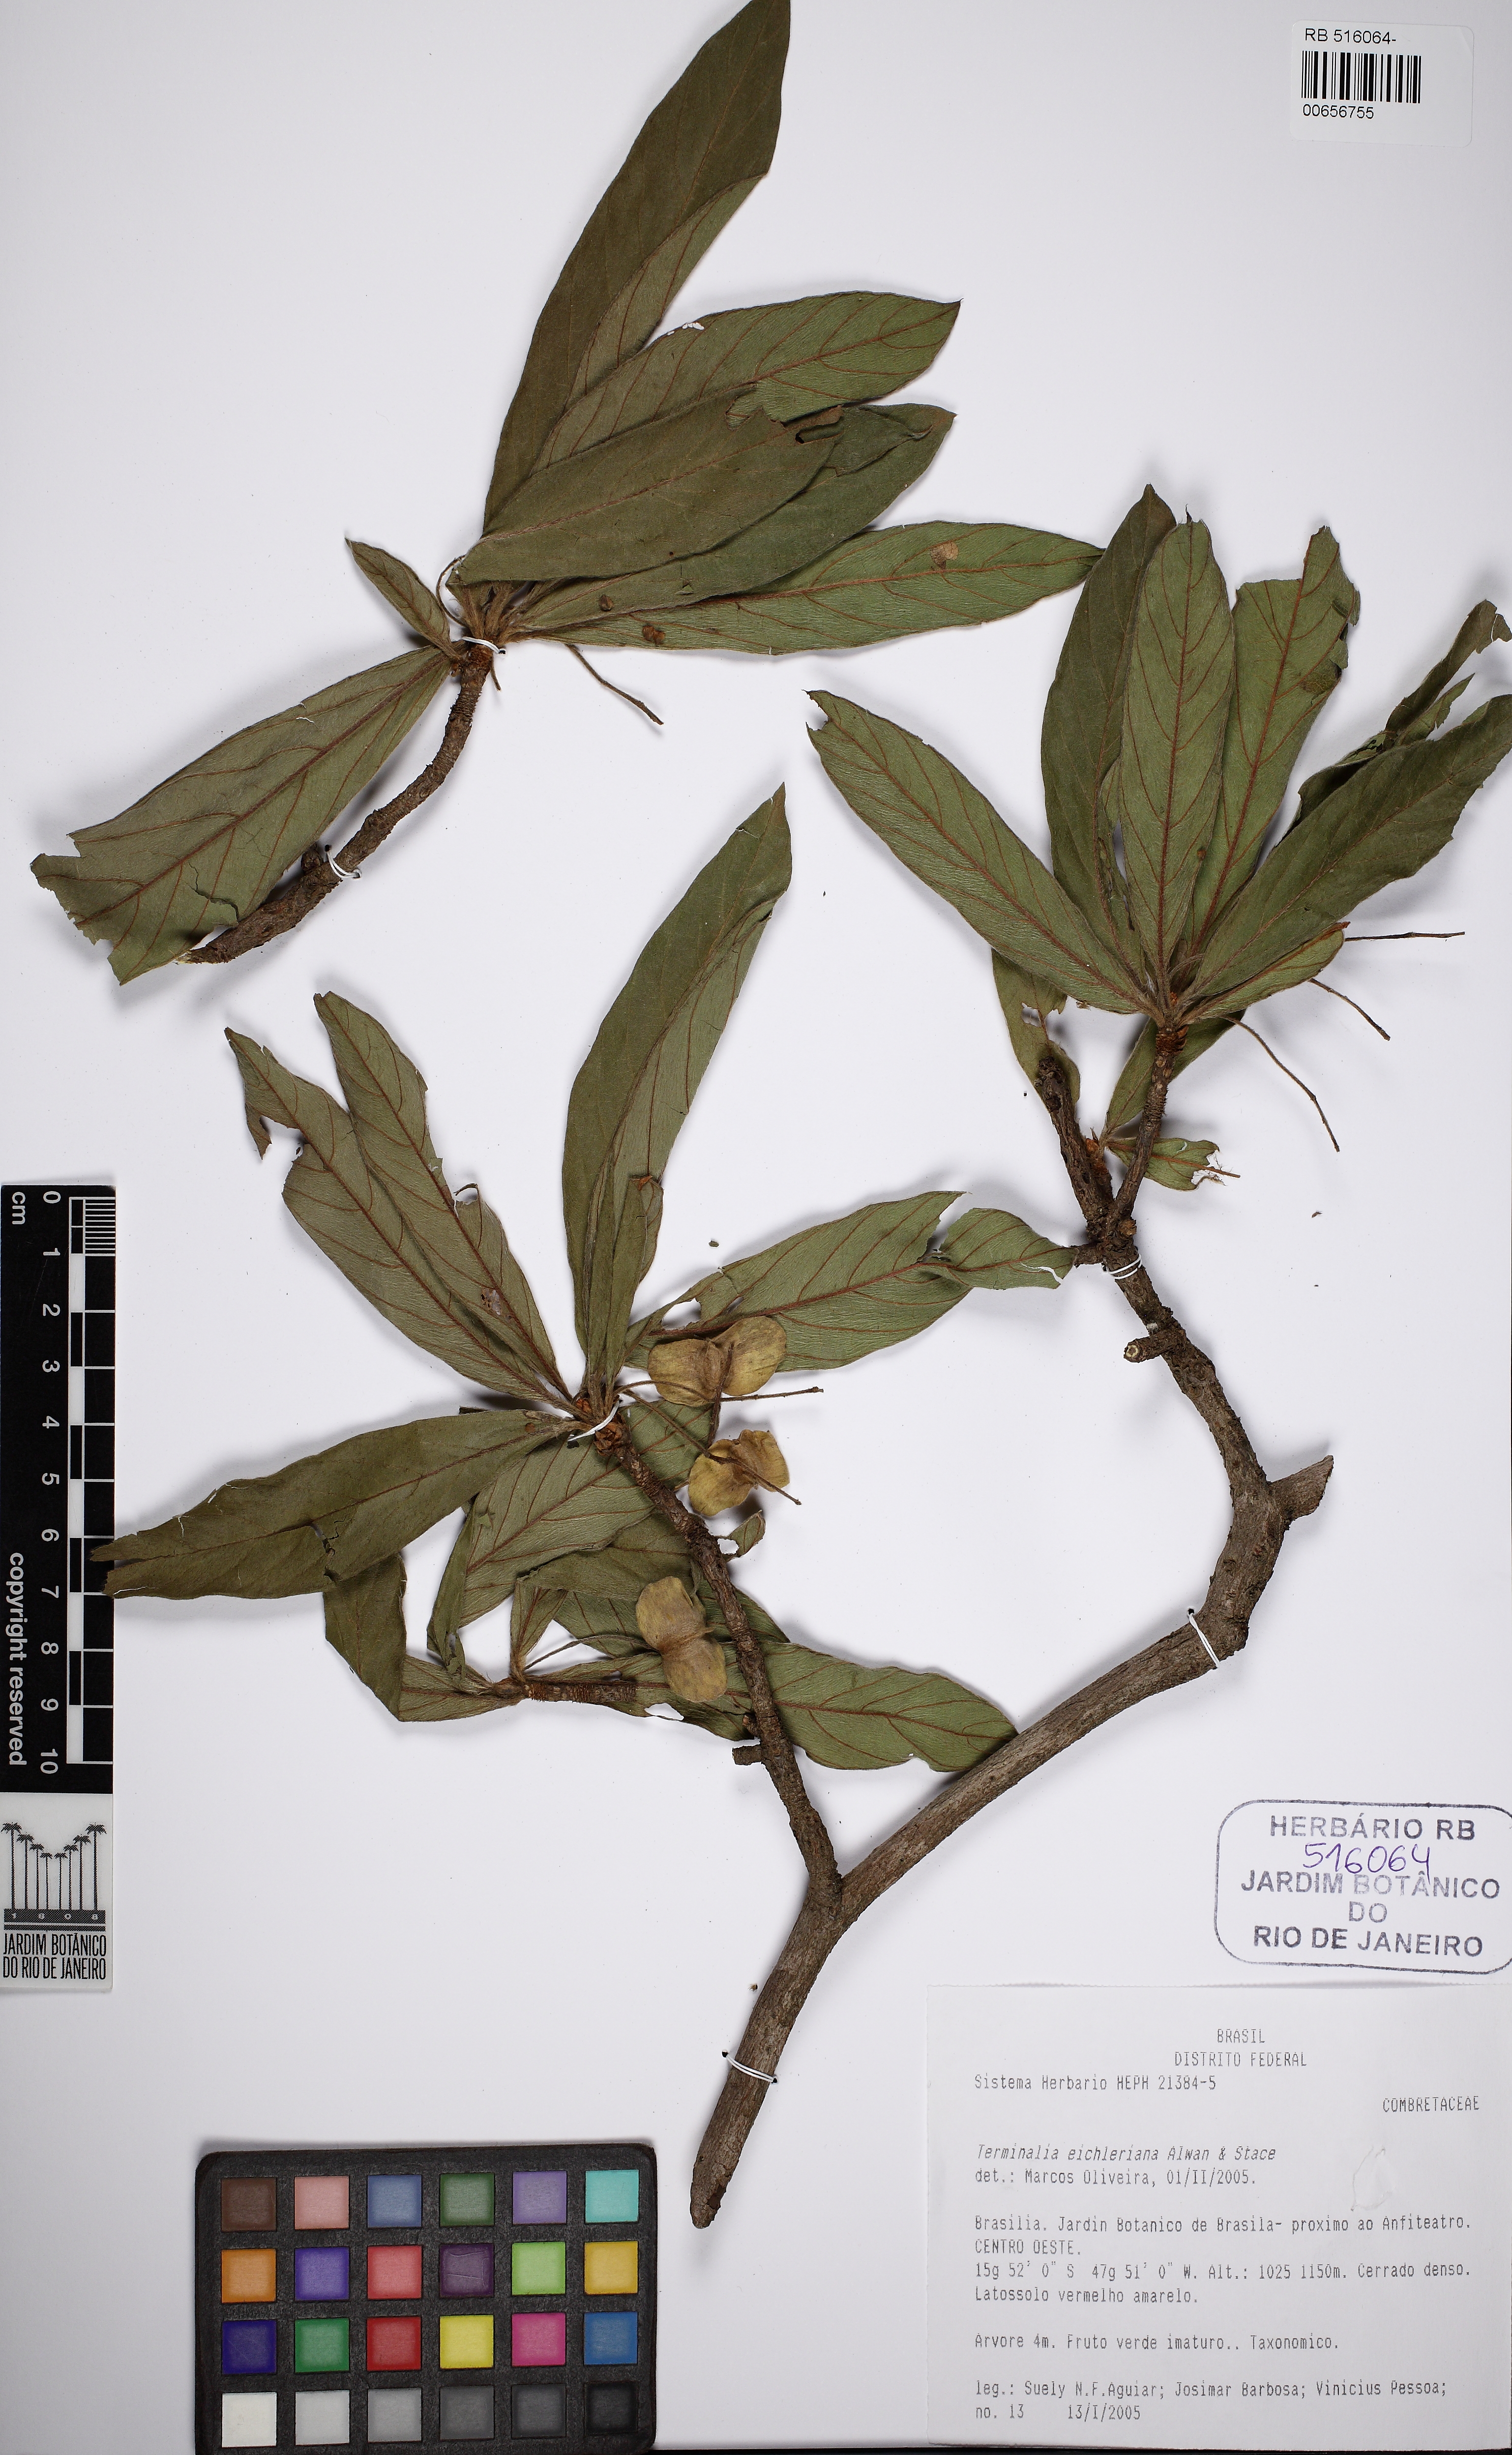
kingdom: Plantae
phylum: Tracheophyta
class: Magnoliopsida
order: Myrtales
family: Combretaceae
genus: Terminalia
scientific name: Terminalia eichleriana
